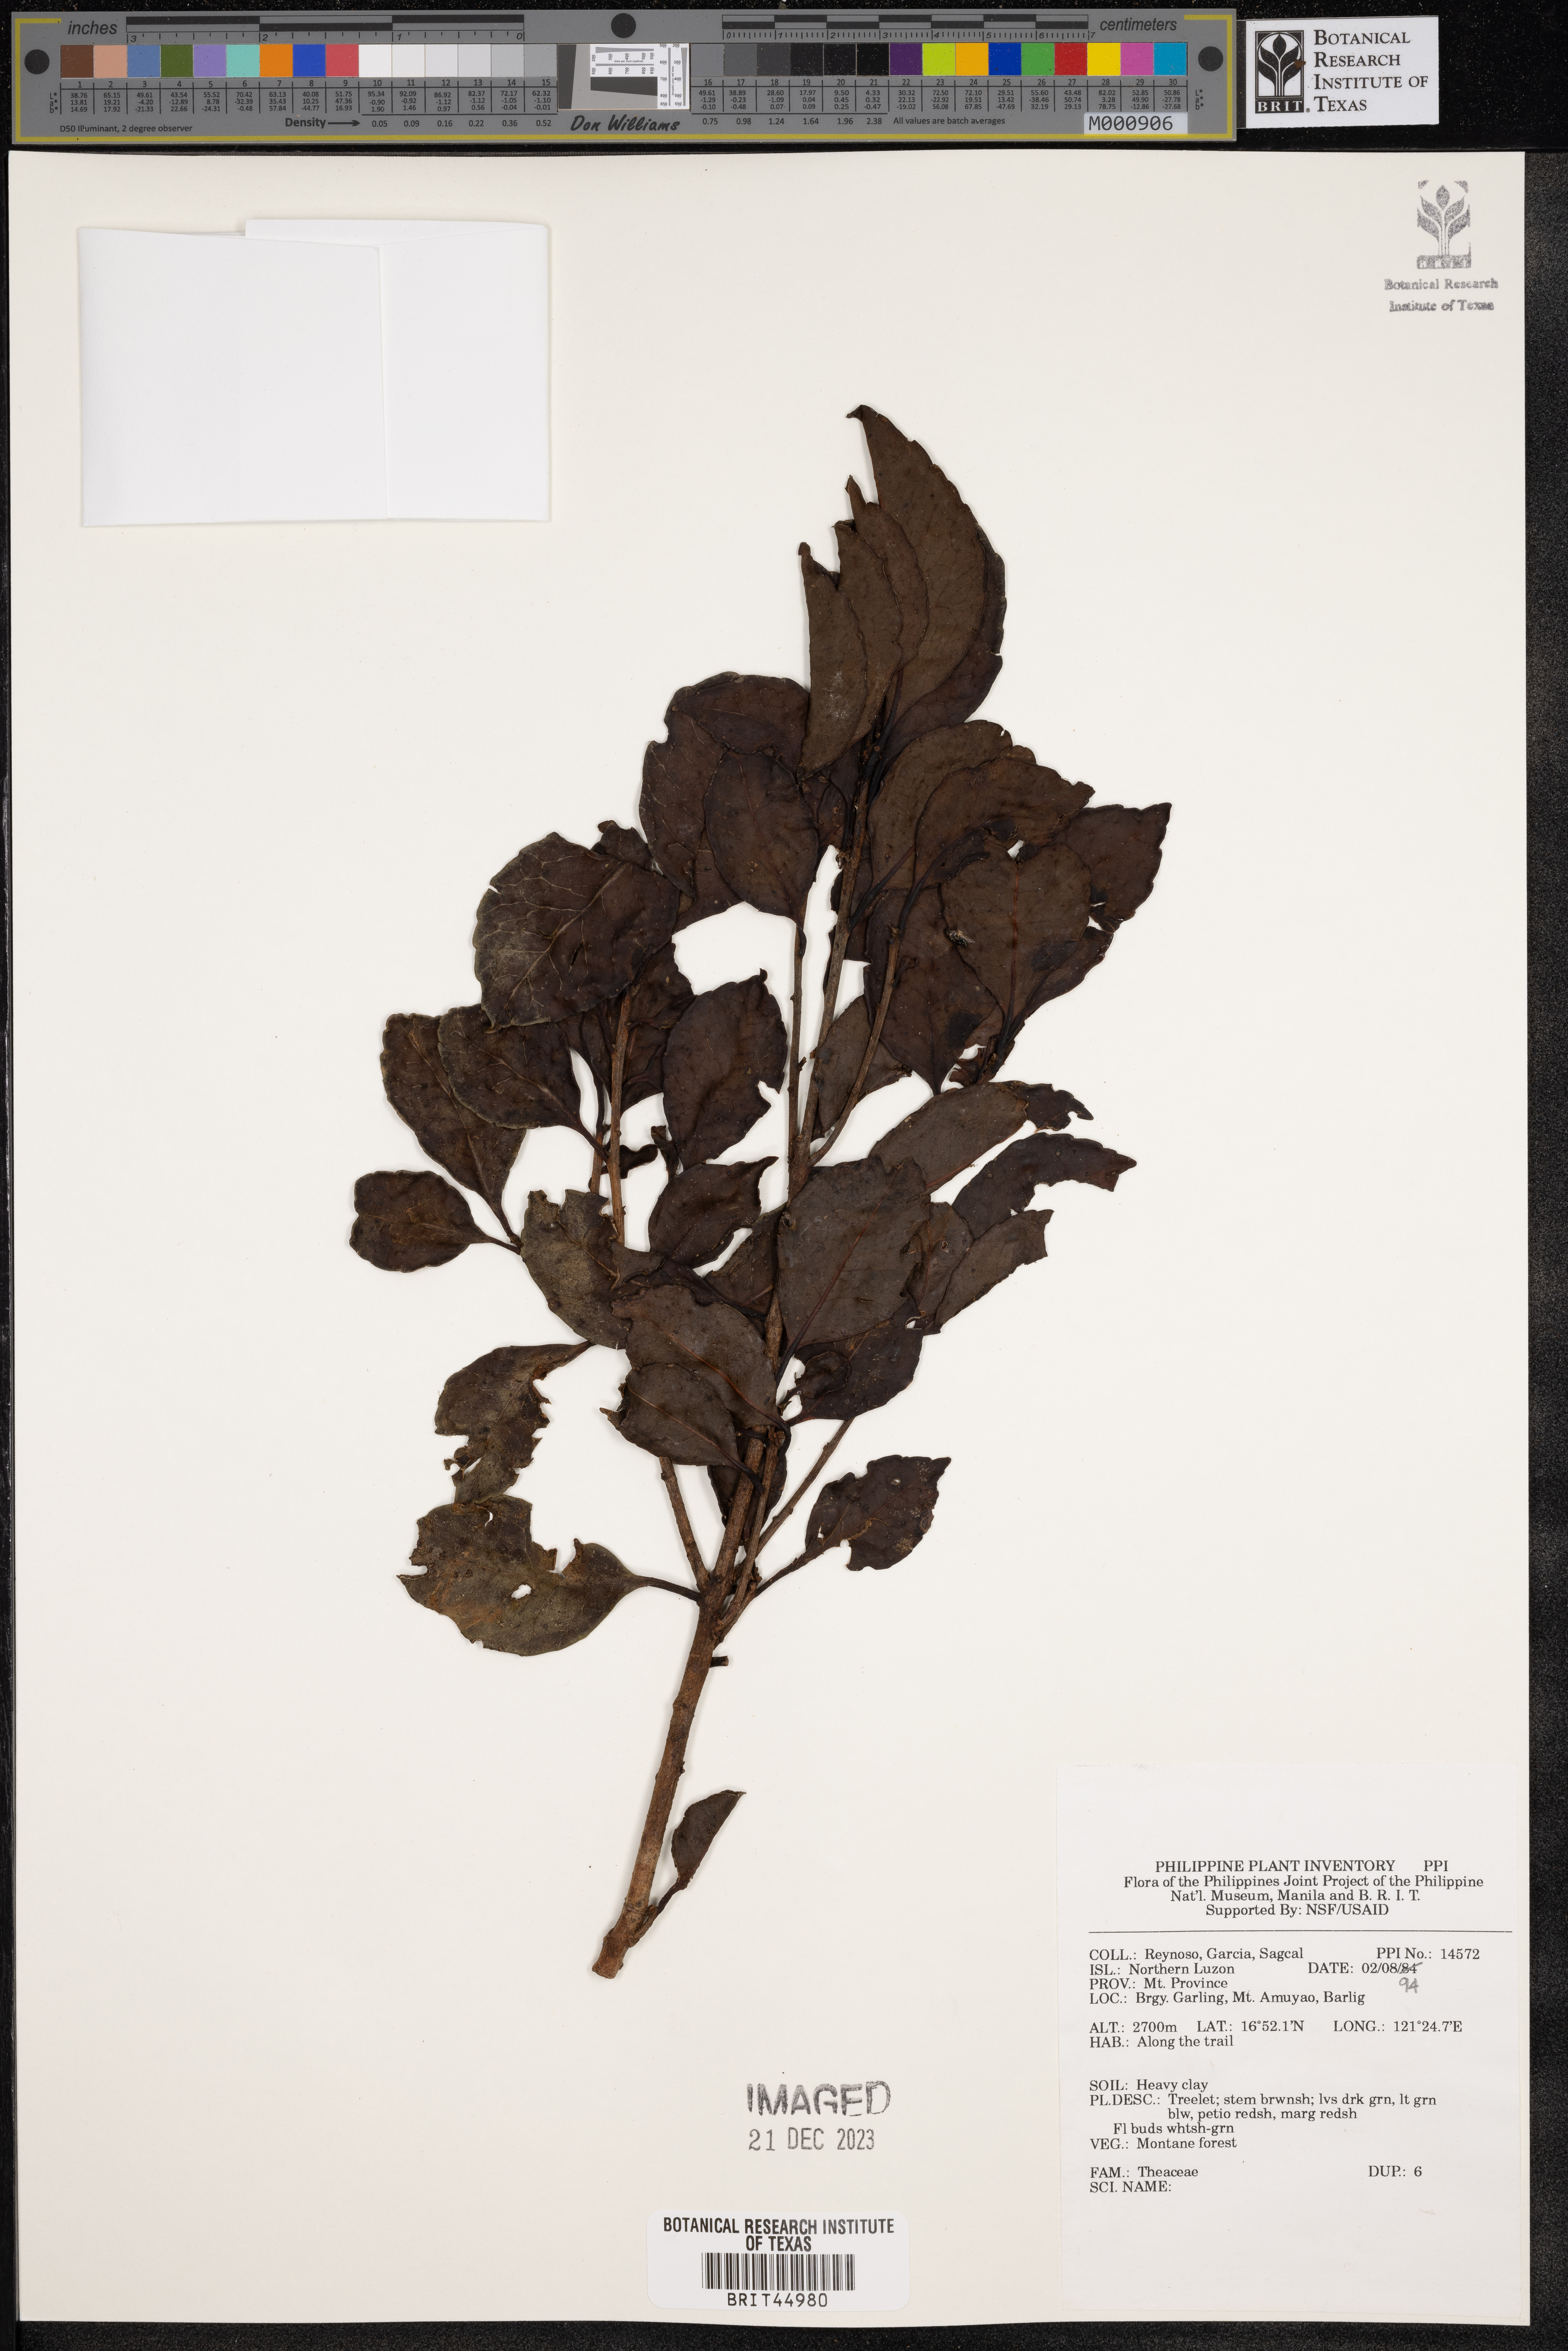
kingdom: Plantae
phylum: Tracheophyta
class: Magnoliopsida
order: Ericales
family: Theaceae
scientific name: Theaceae
